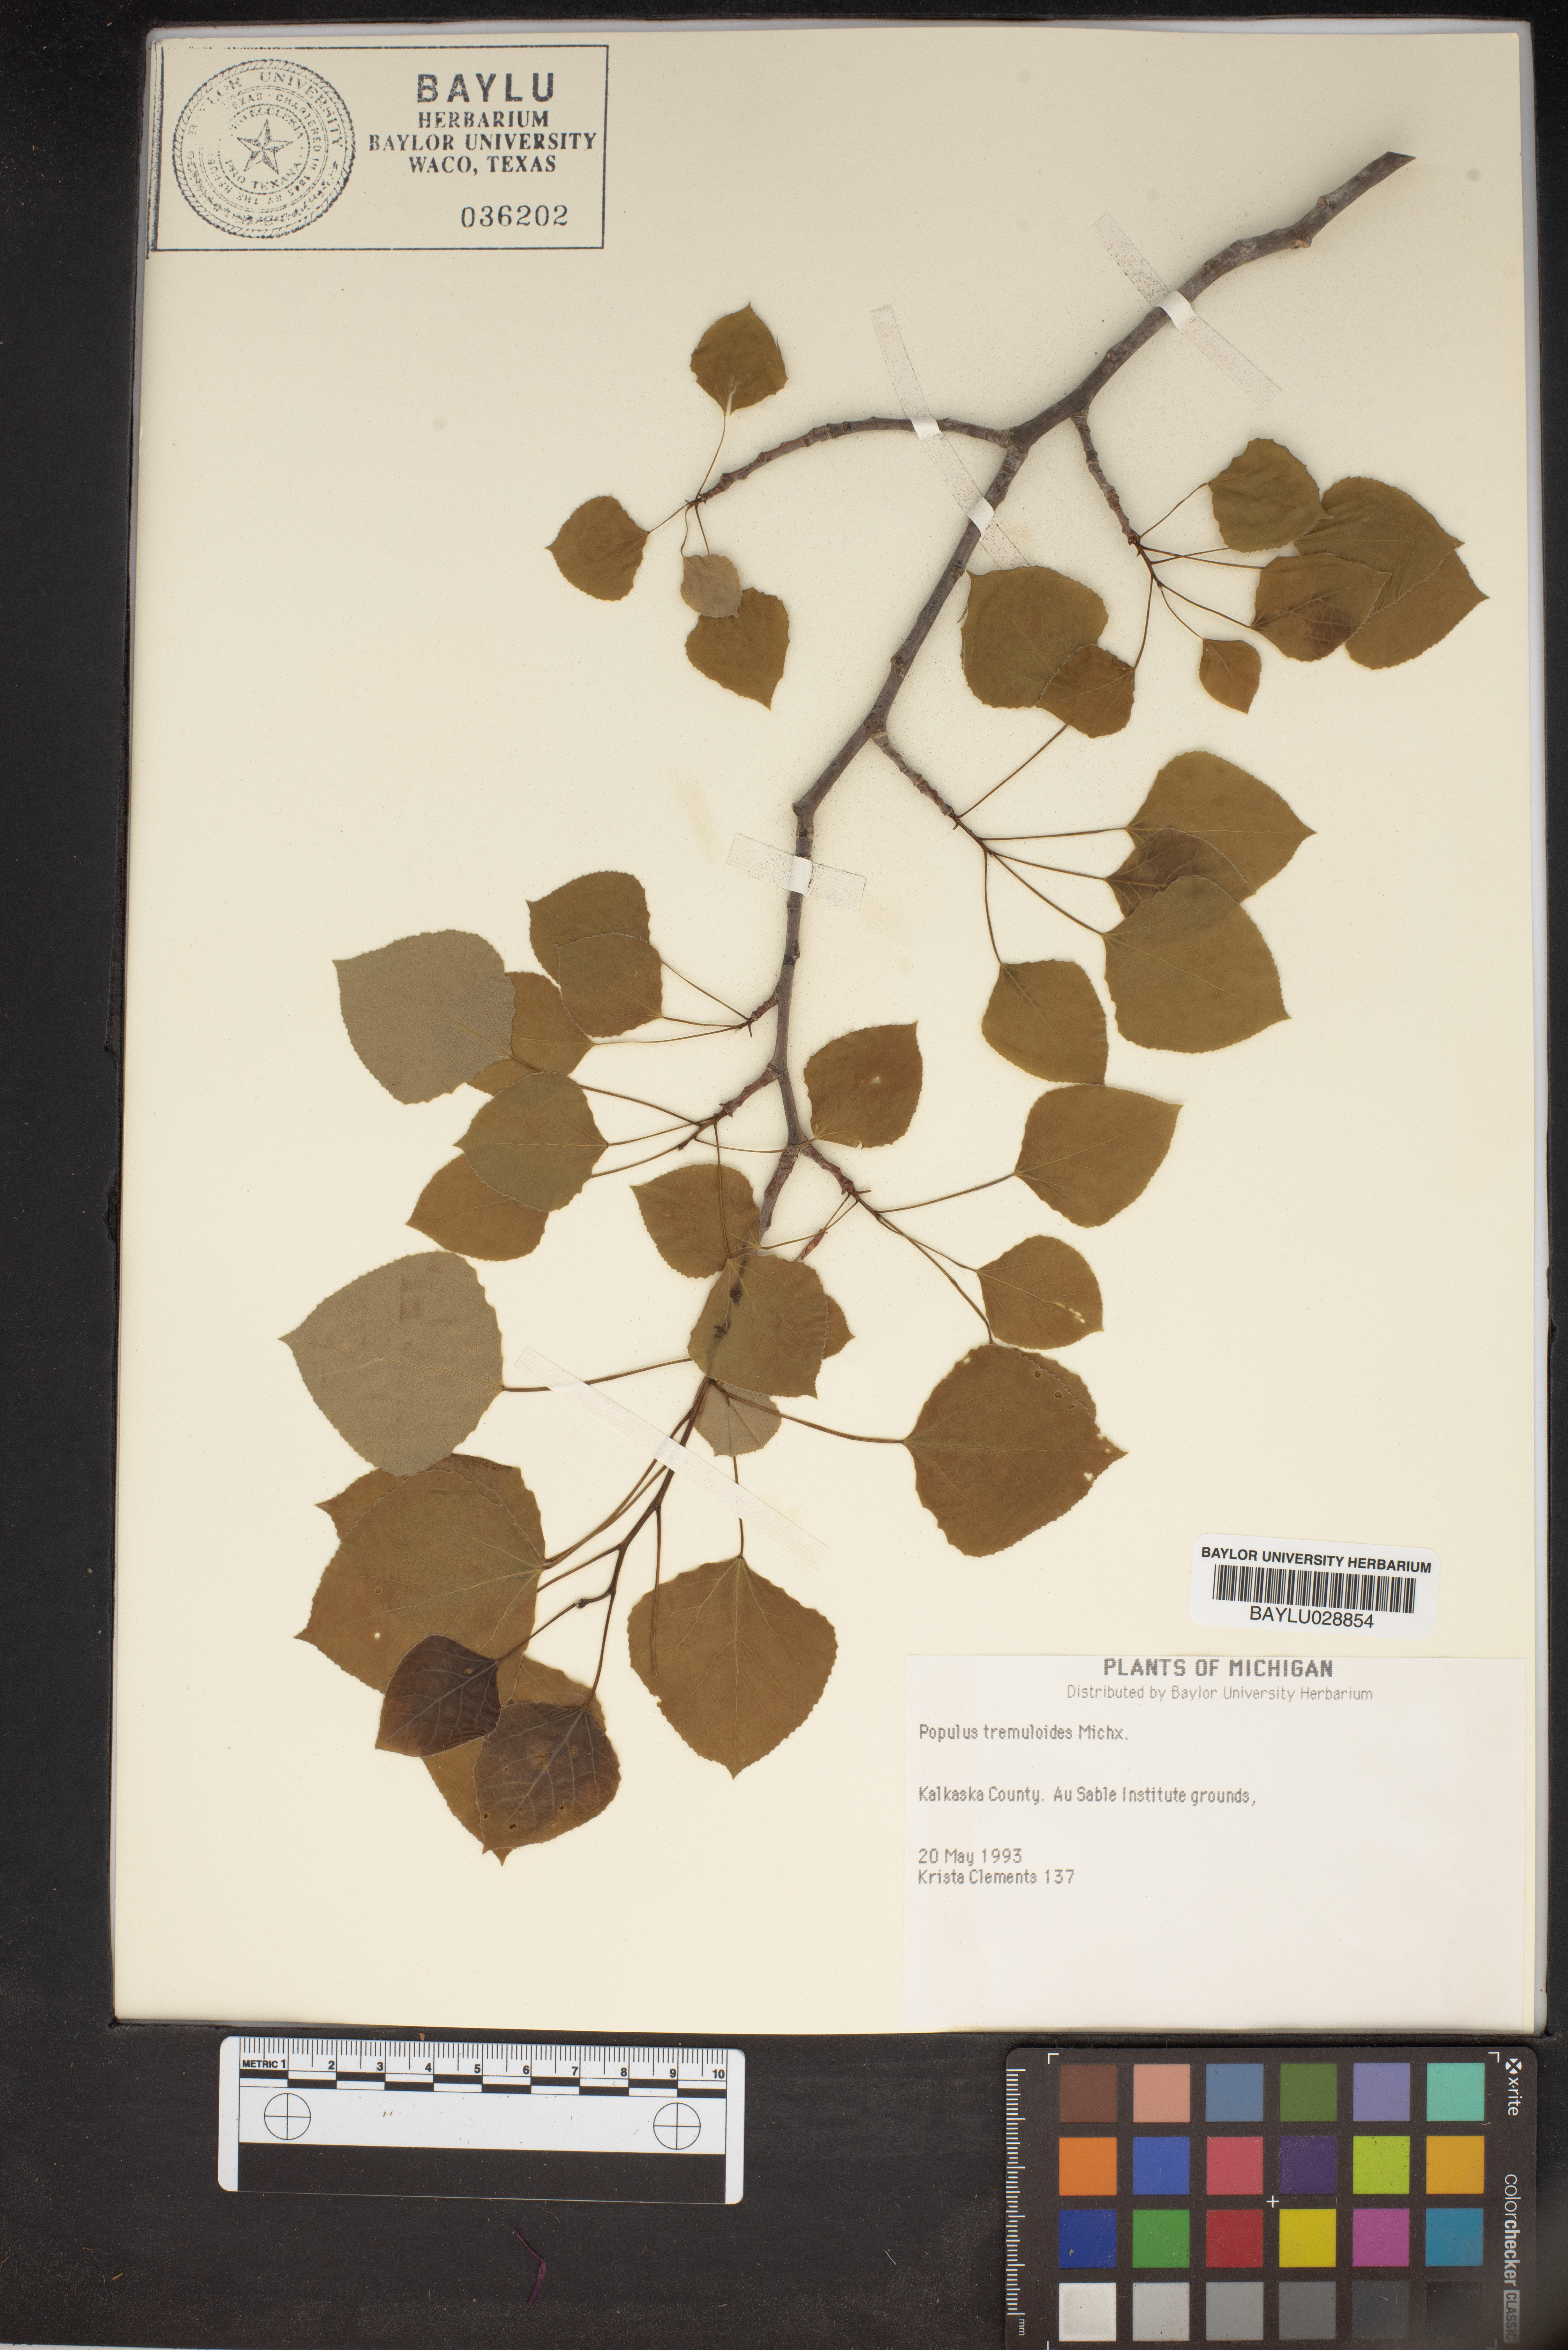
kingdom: Plantae
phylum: Tracheophyta
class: Magnoliopsida
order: Malpighiales
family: Salicaceae
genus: Populus
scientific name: Populus tremuloides
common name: Quaking aspen
